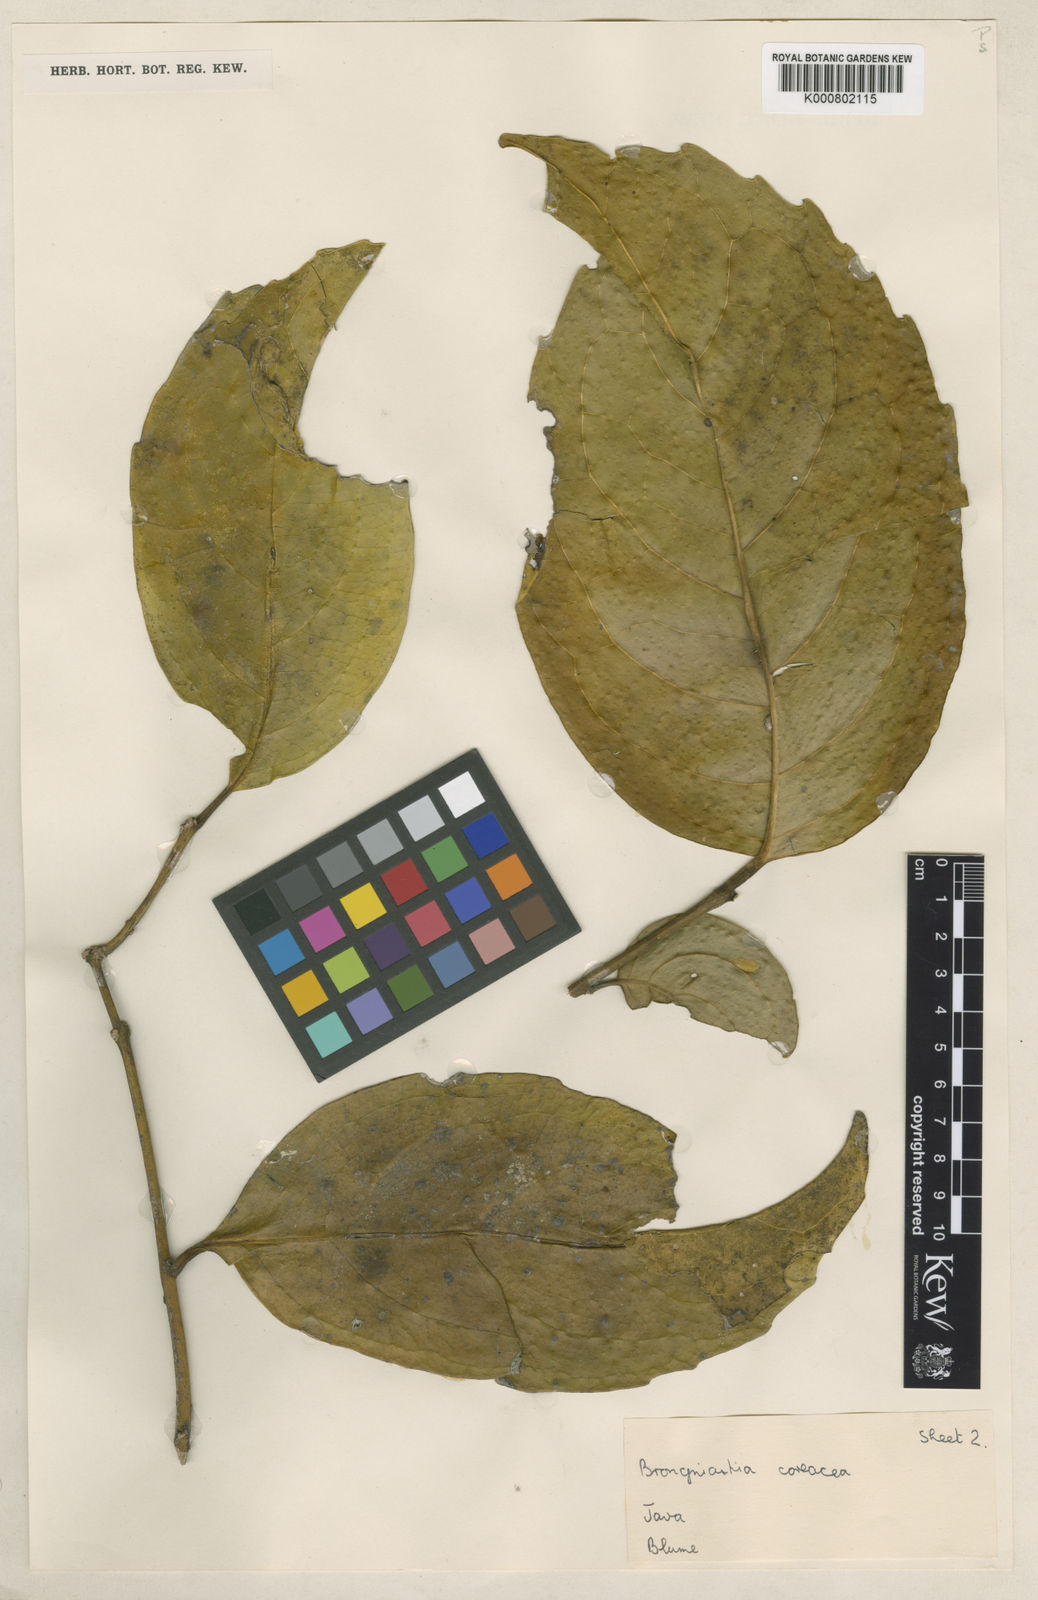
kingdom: Plantae
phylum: Tracheophyta
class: Magnoliopsida
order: Laurales
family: Monimiaceae
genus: Kibara
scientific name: Kibara coriacea
